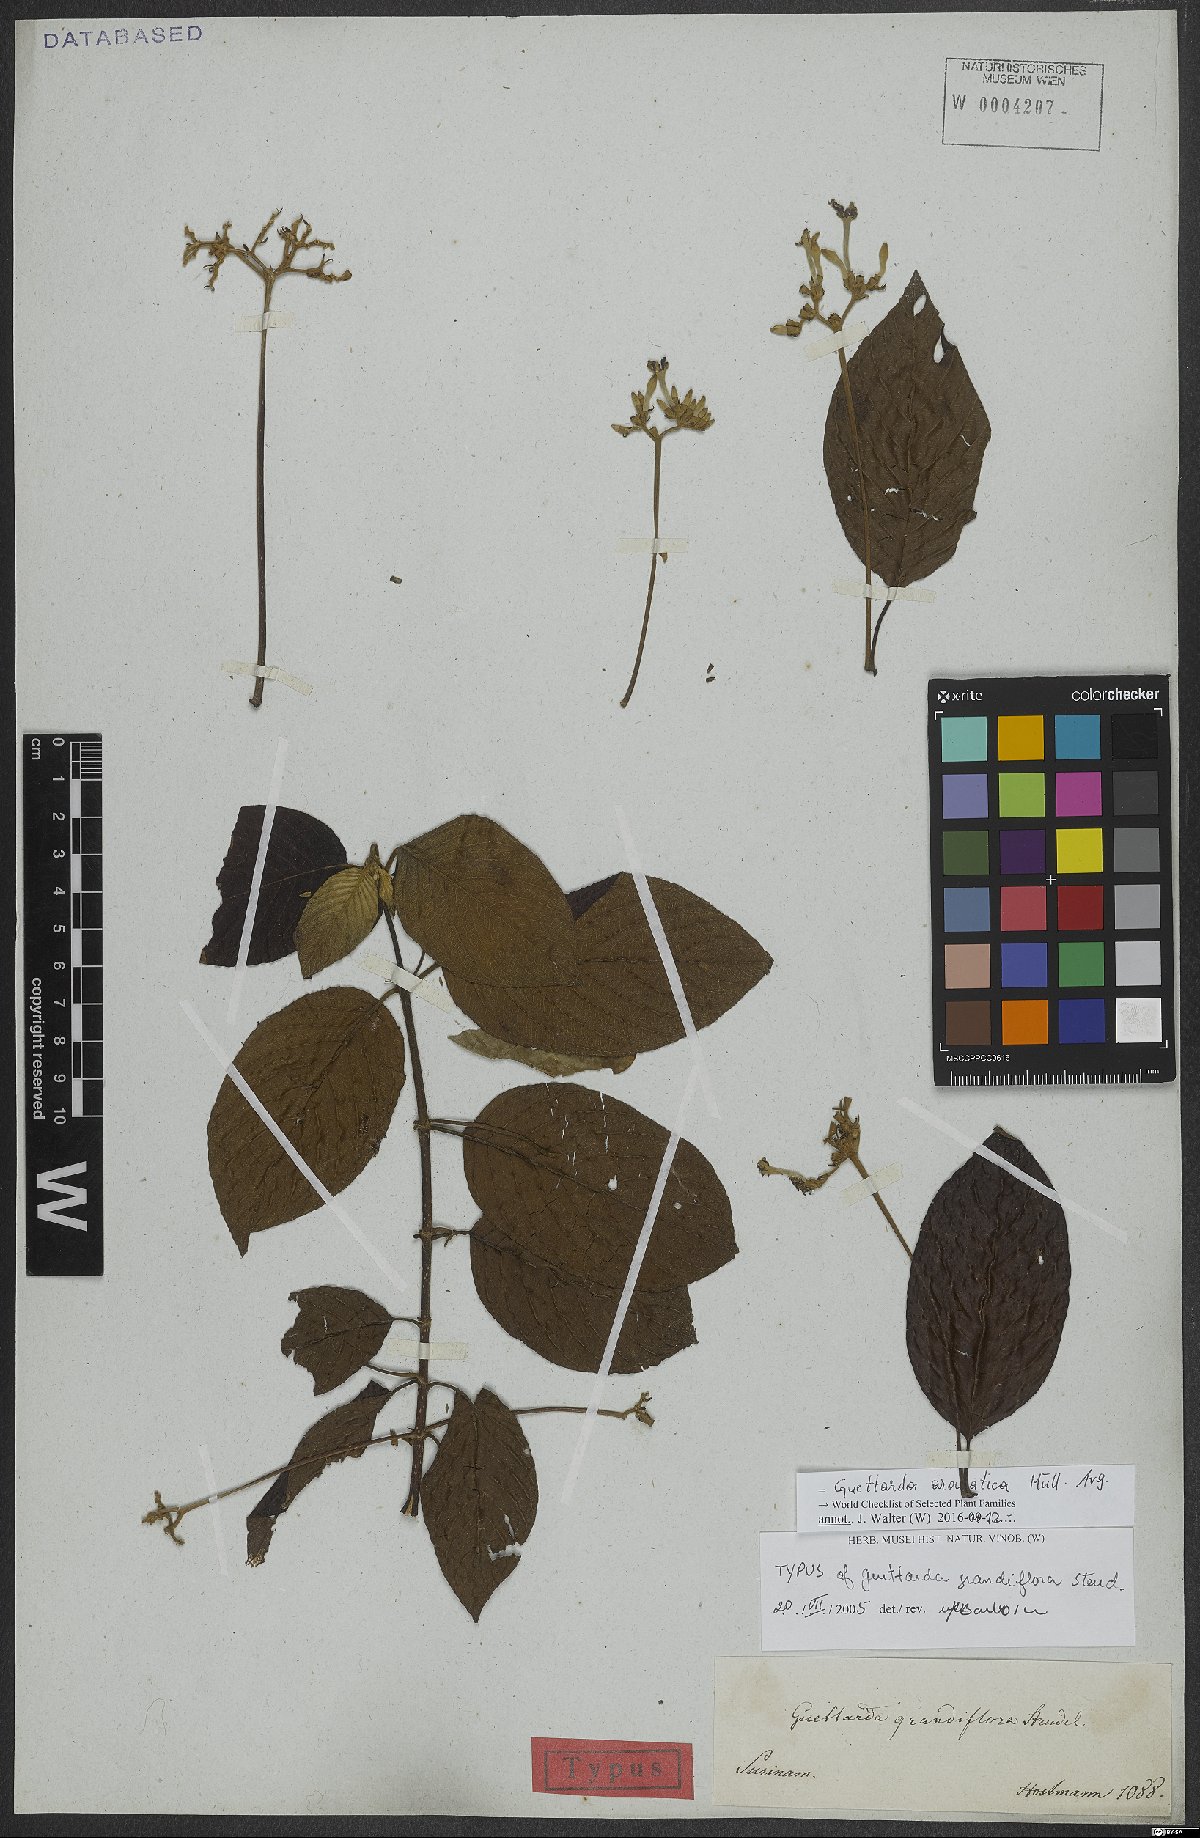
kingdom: Plantae
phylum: Tracheophyta
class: Magnoliopsida
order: Gentianales
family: Rubiaceae
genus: Guettarda
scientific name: Guettarda aromatica
